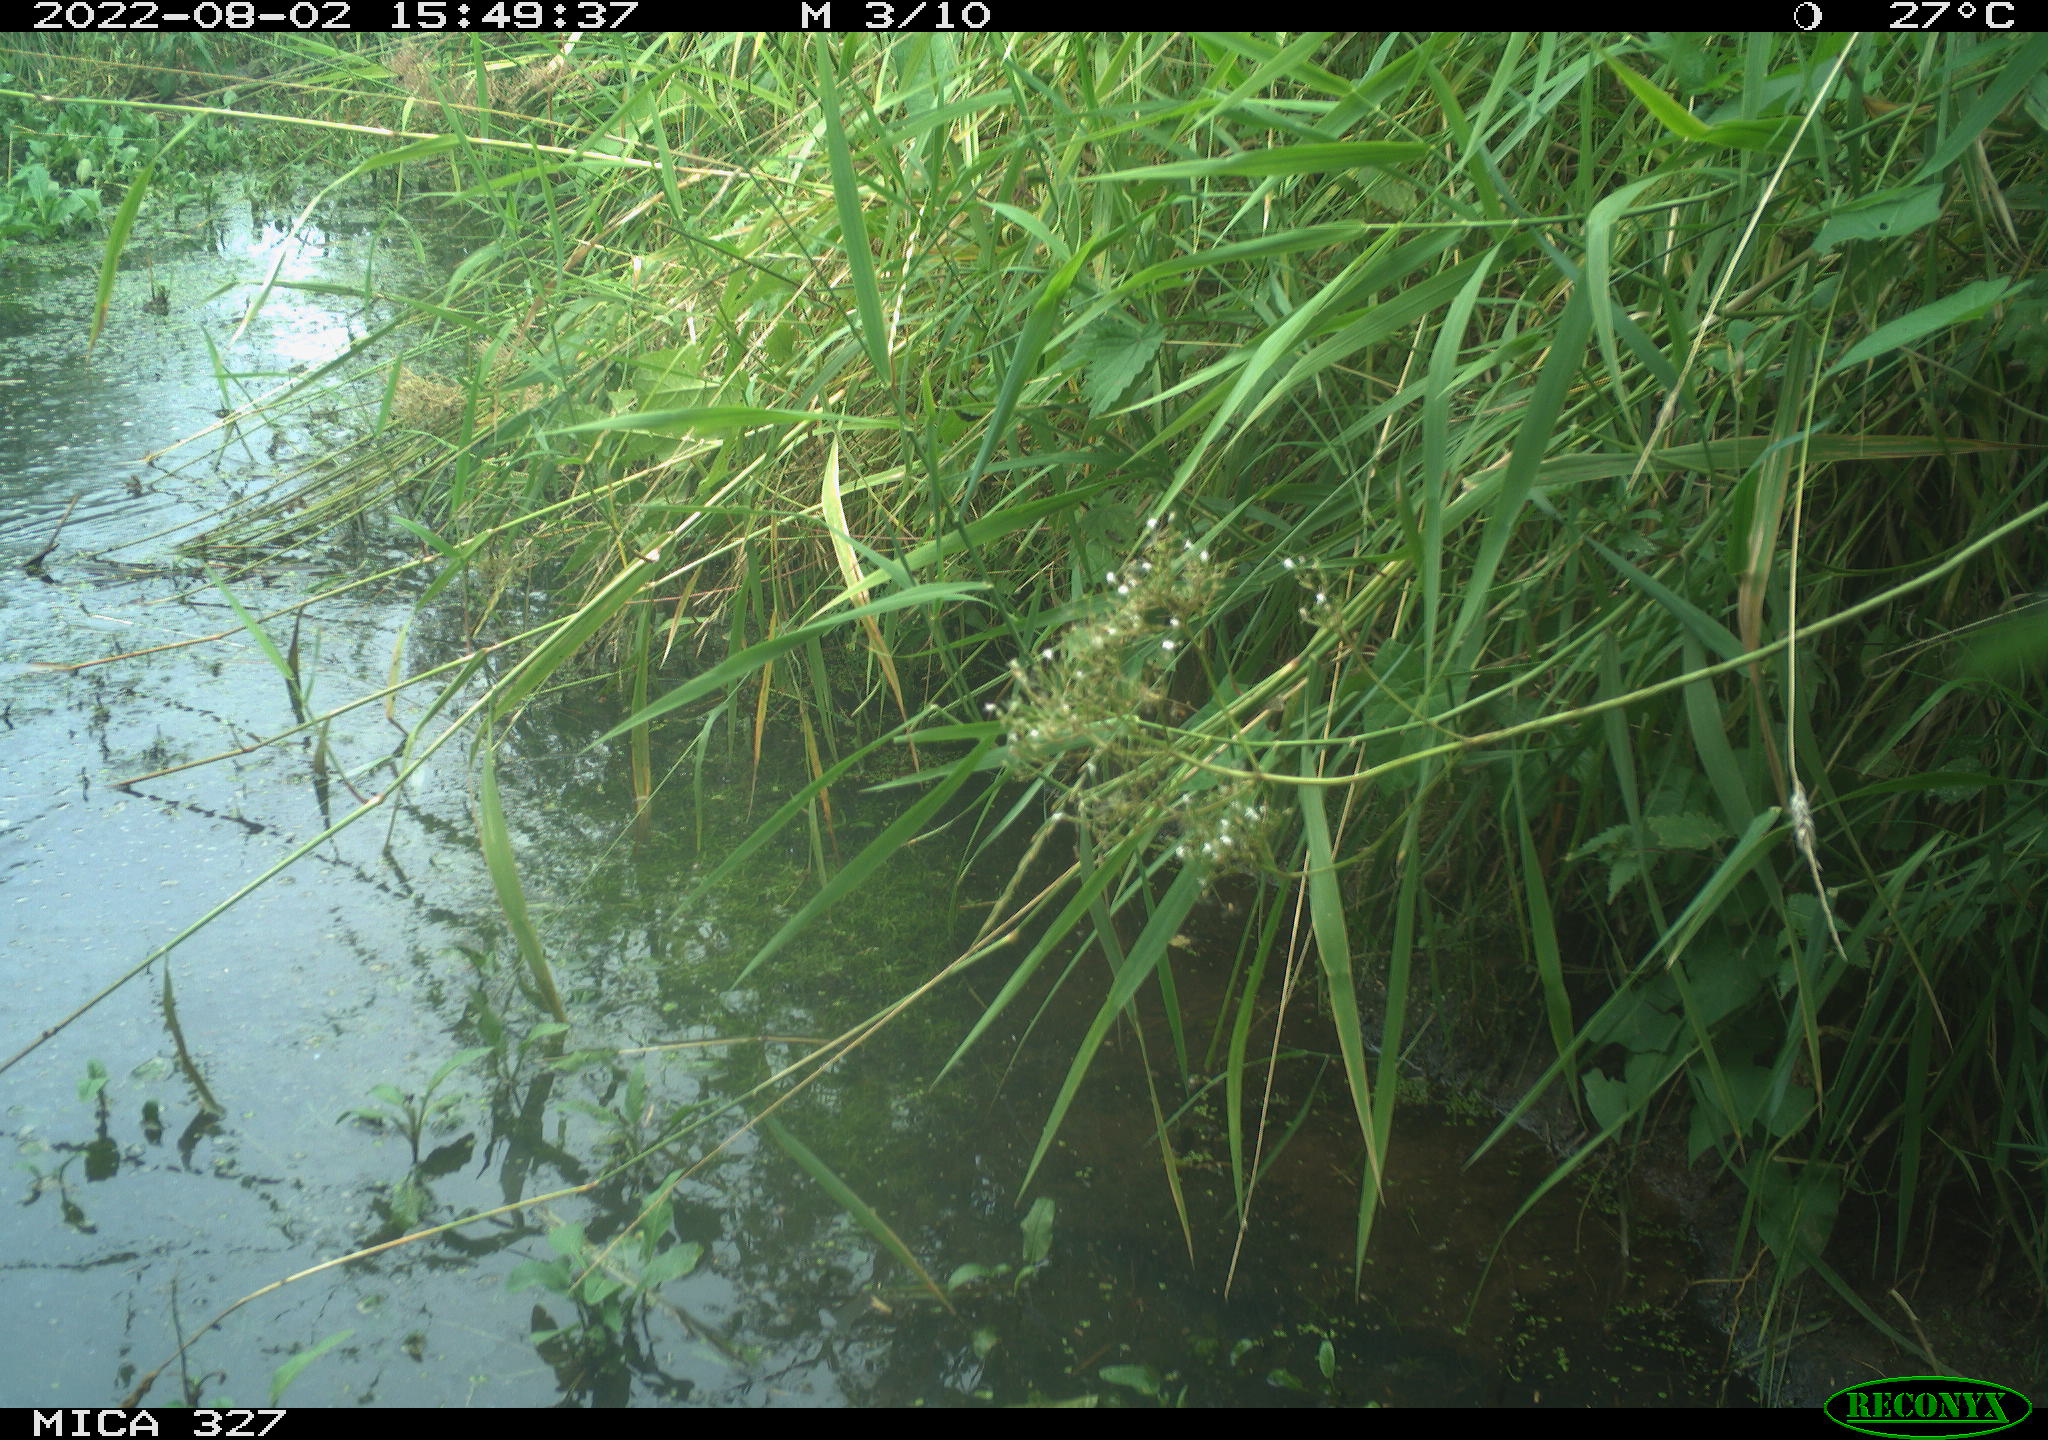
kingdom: Animalia
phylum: Chordata
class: Aves
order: Gruiformes
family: Rallidae
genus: Gallinula
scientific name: Gallinula chloropus
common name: Common moorhen
